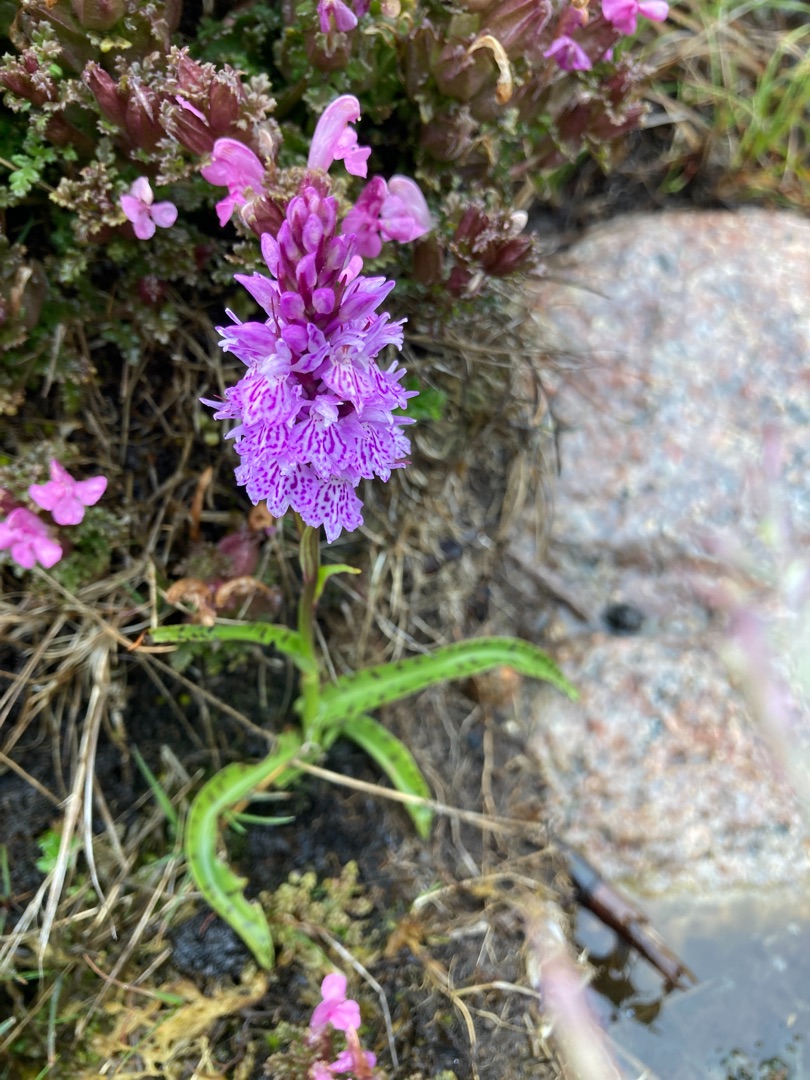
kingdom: Plantae
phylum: Tracheophyta
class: Liliopsida
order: Asparagales
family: Orchidaceae
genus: Dactylorhiza
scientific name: Dactylorhiza maculata
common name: Plettet gøgeurt
